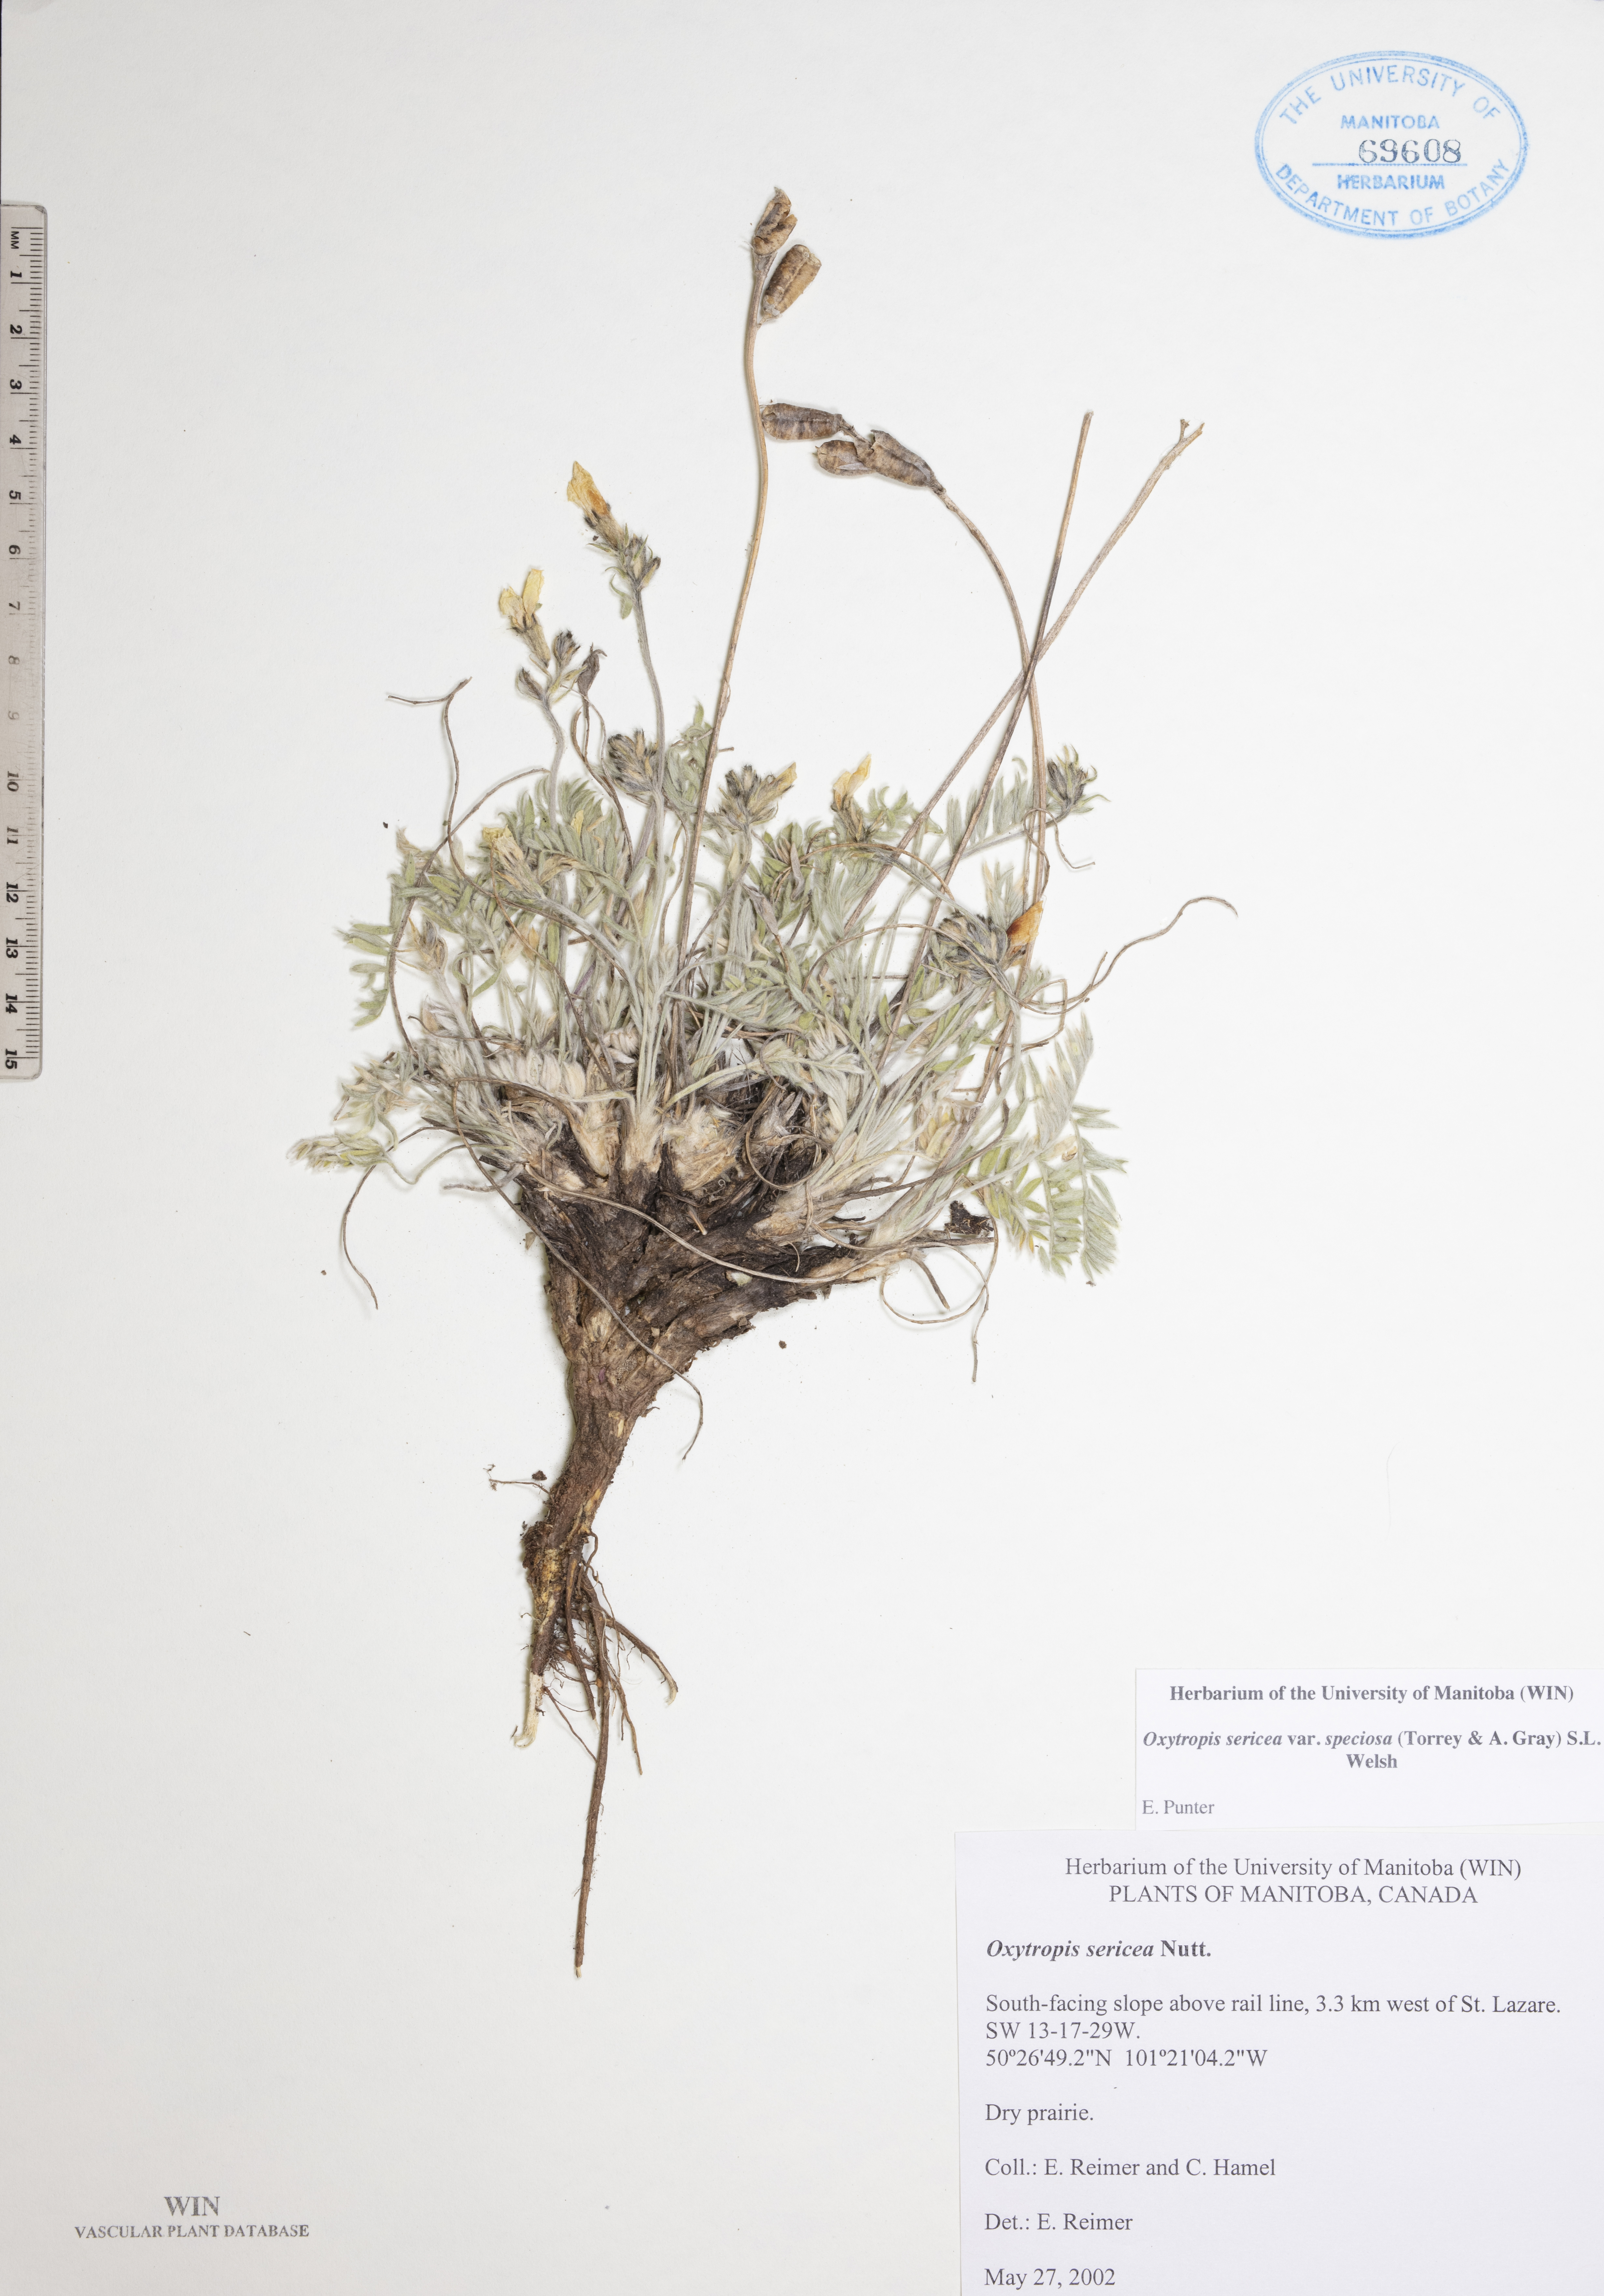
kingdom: Plantae
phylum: Tracheophyta
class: Magnoliopsida
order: Fabales
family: Fabaceae
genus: Oxytropis
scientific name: Oxytropis sericea
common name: Silky locoweed
